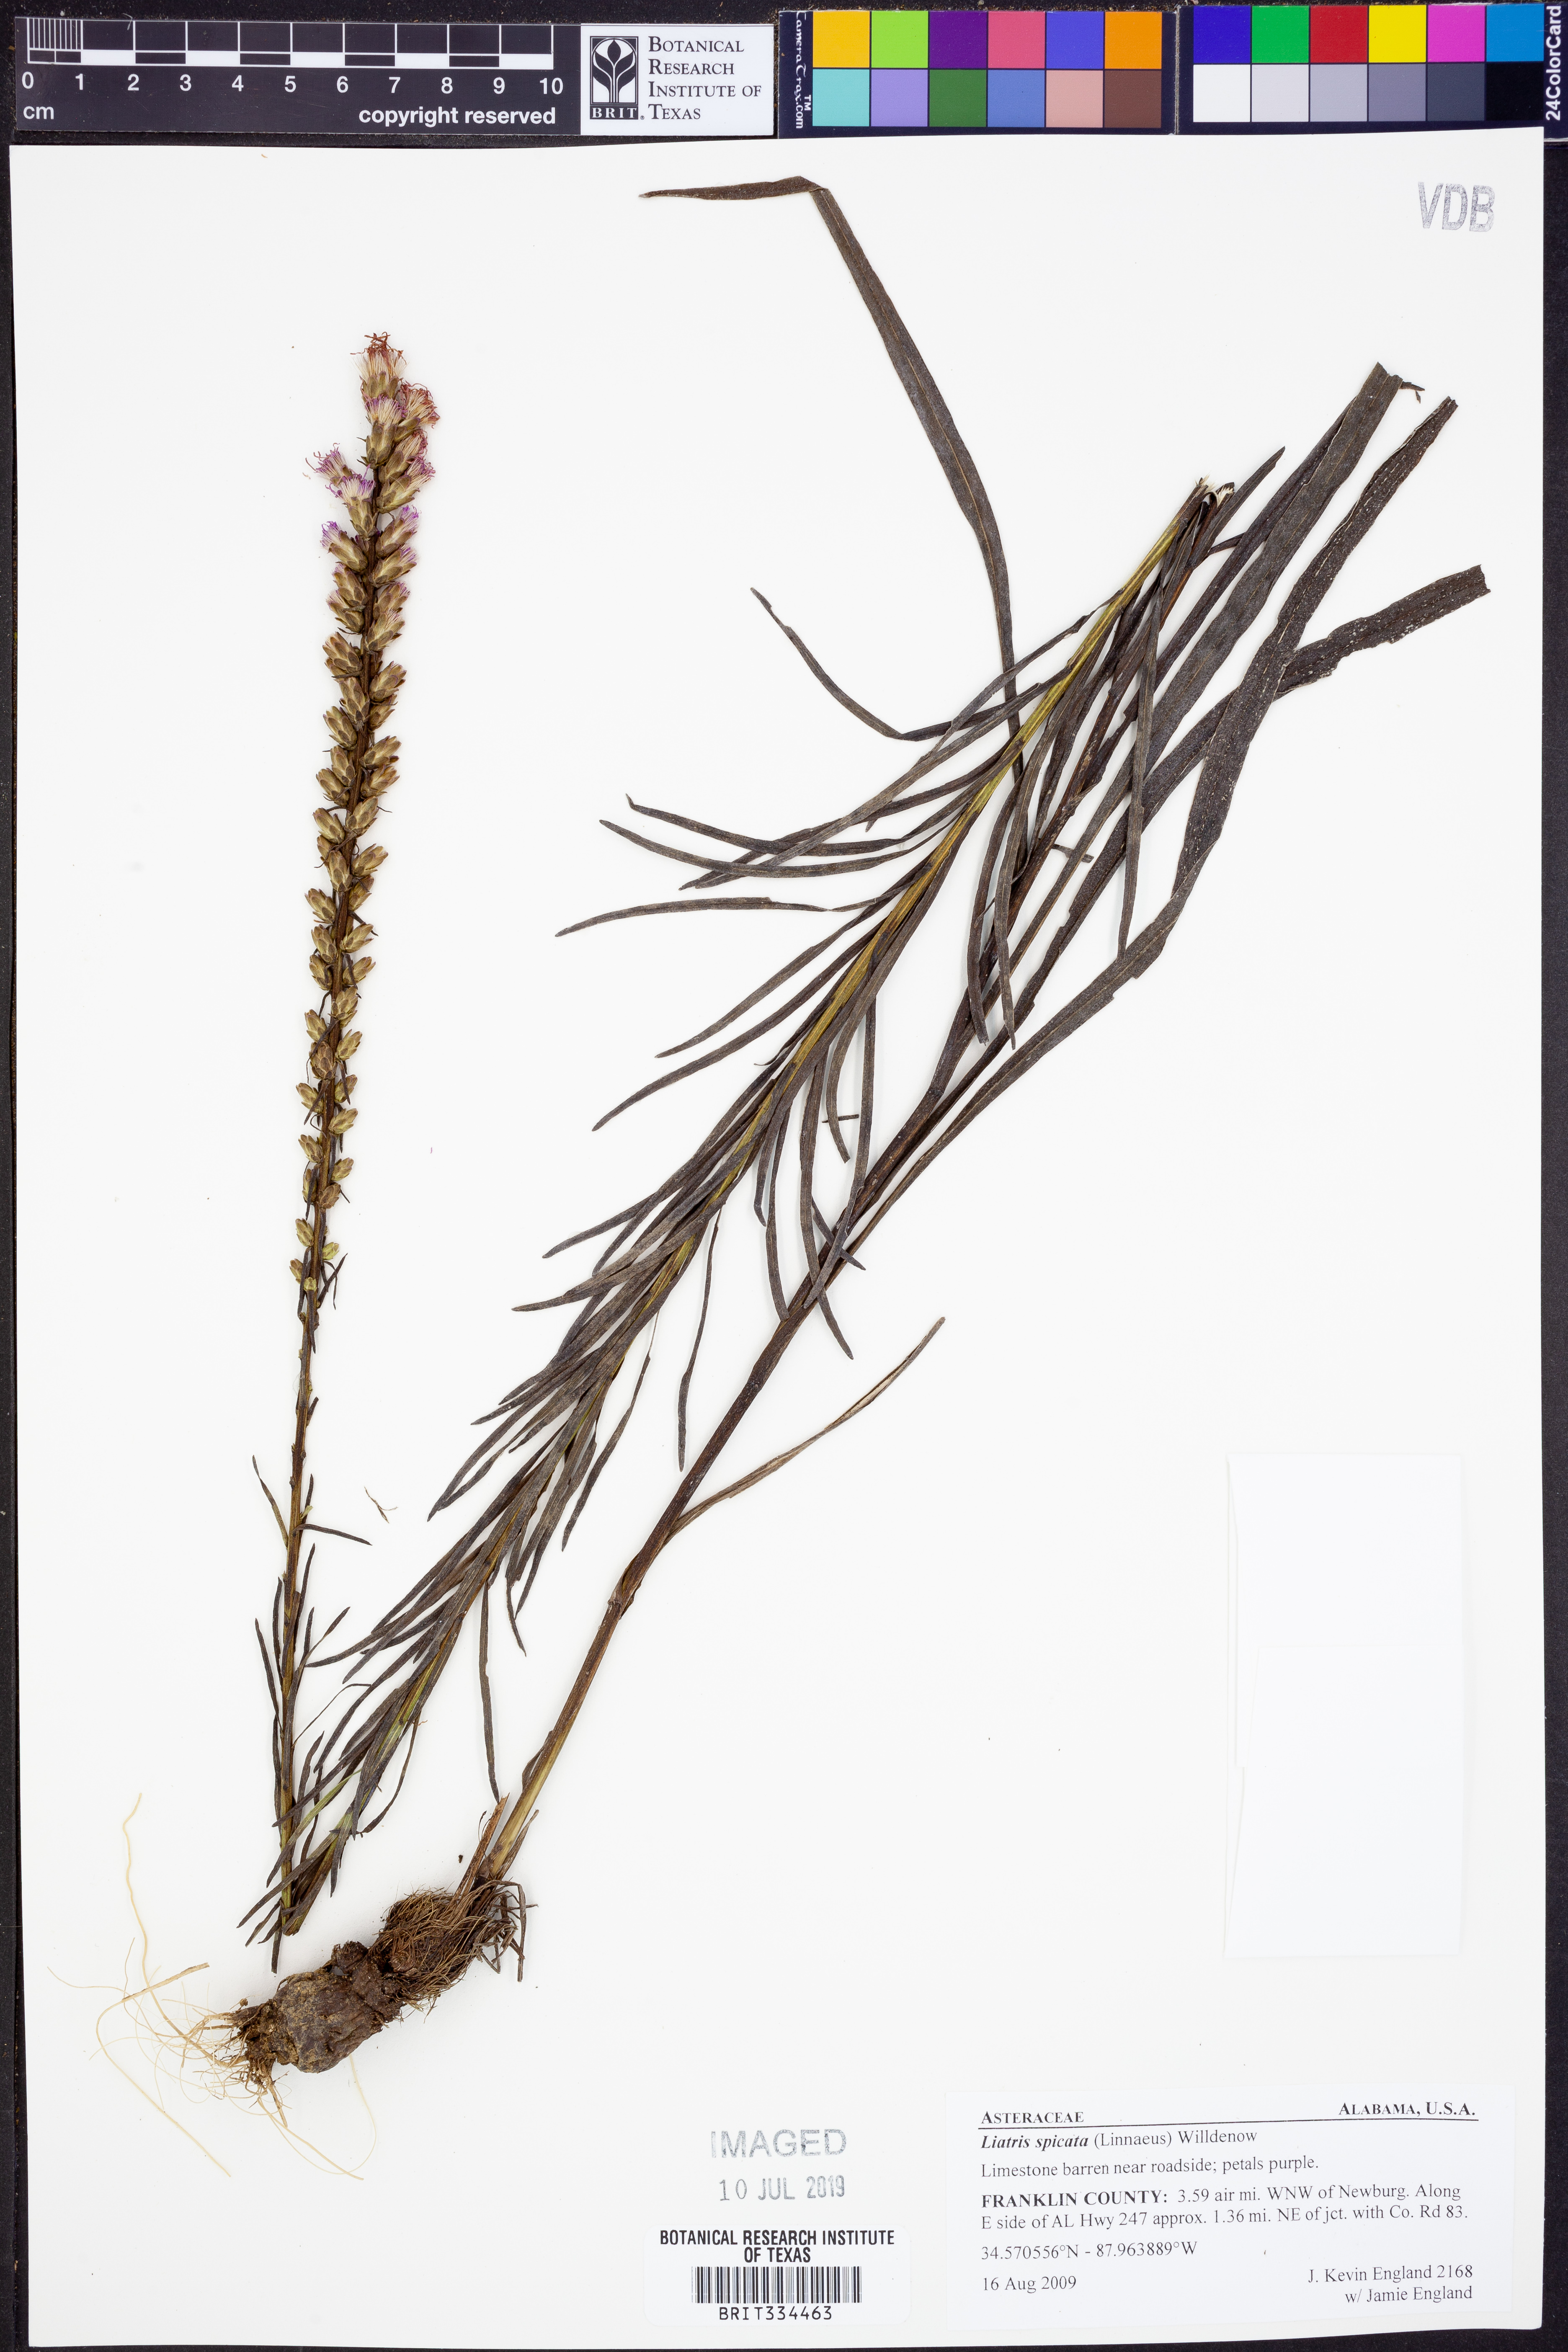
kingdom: Plantae
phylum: Tracheophyta
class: Magnoliopsida
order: Asterales
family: Asteraceae
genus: Liatris
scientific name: Liatris spicata
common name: Florist gayfeather
